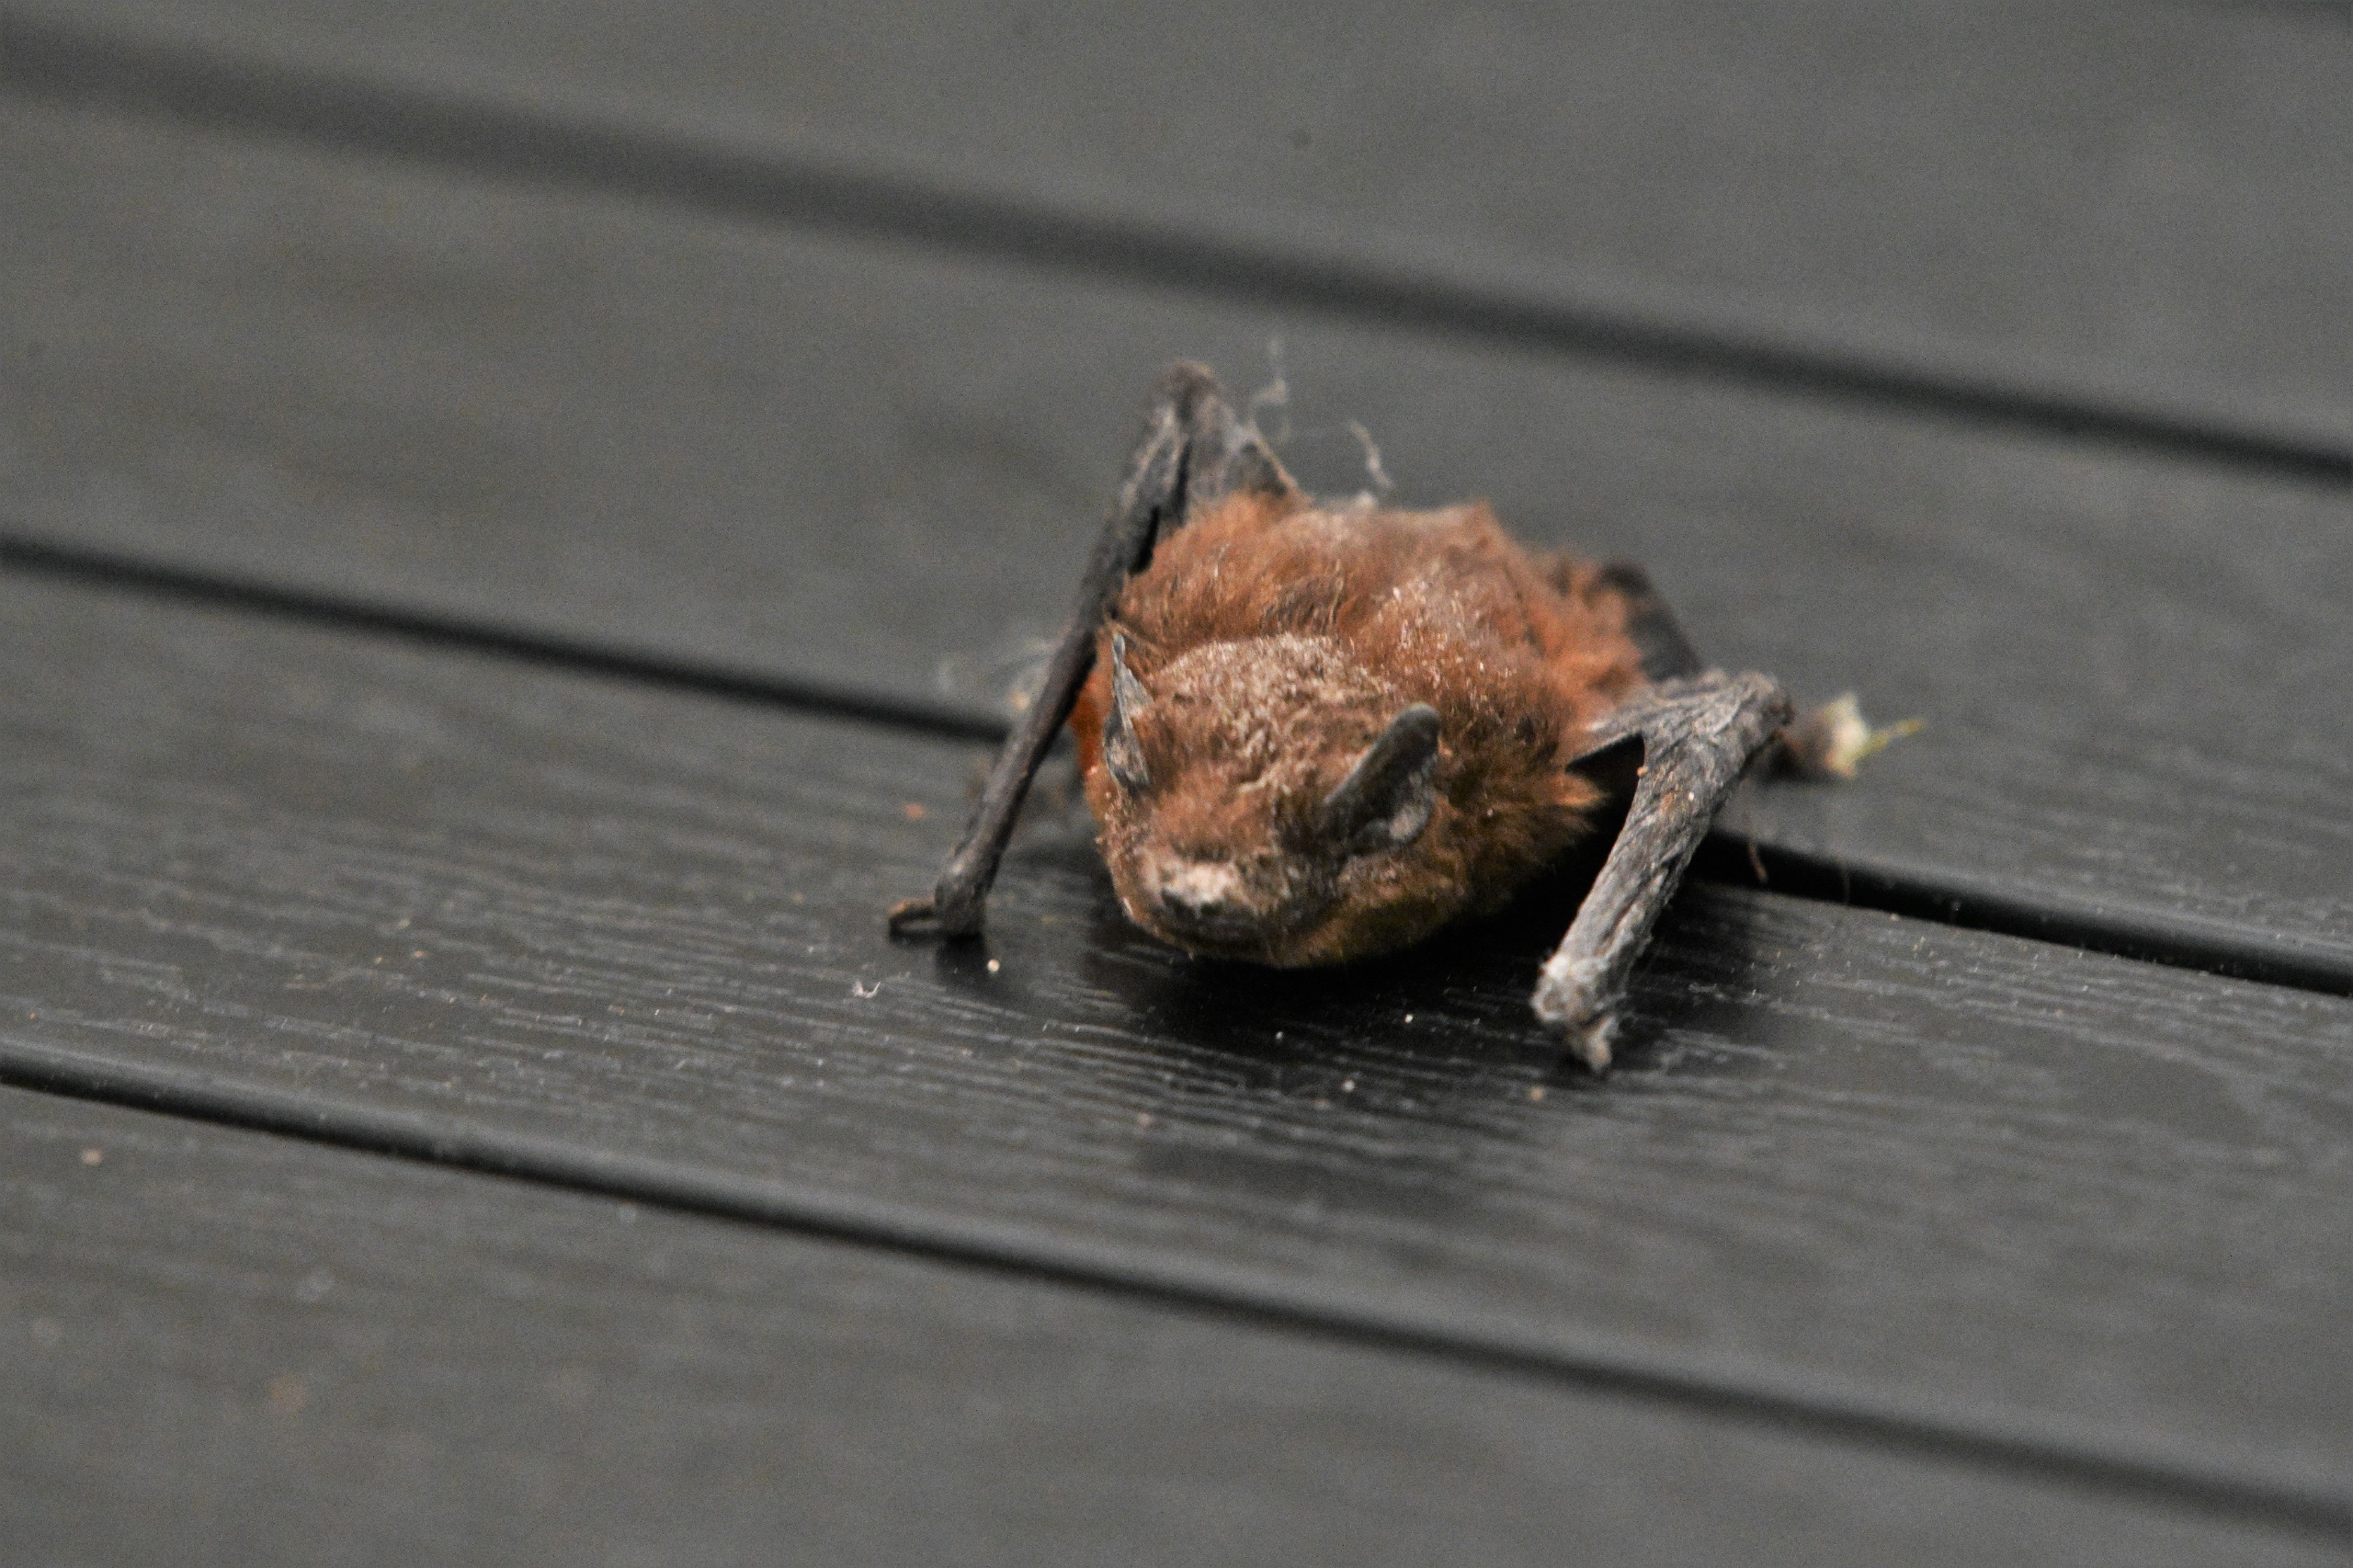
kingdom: Animalia
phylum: Chordata
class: Mammalia
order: Chiroptera
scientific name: Chiroptera
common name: Flagermus
